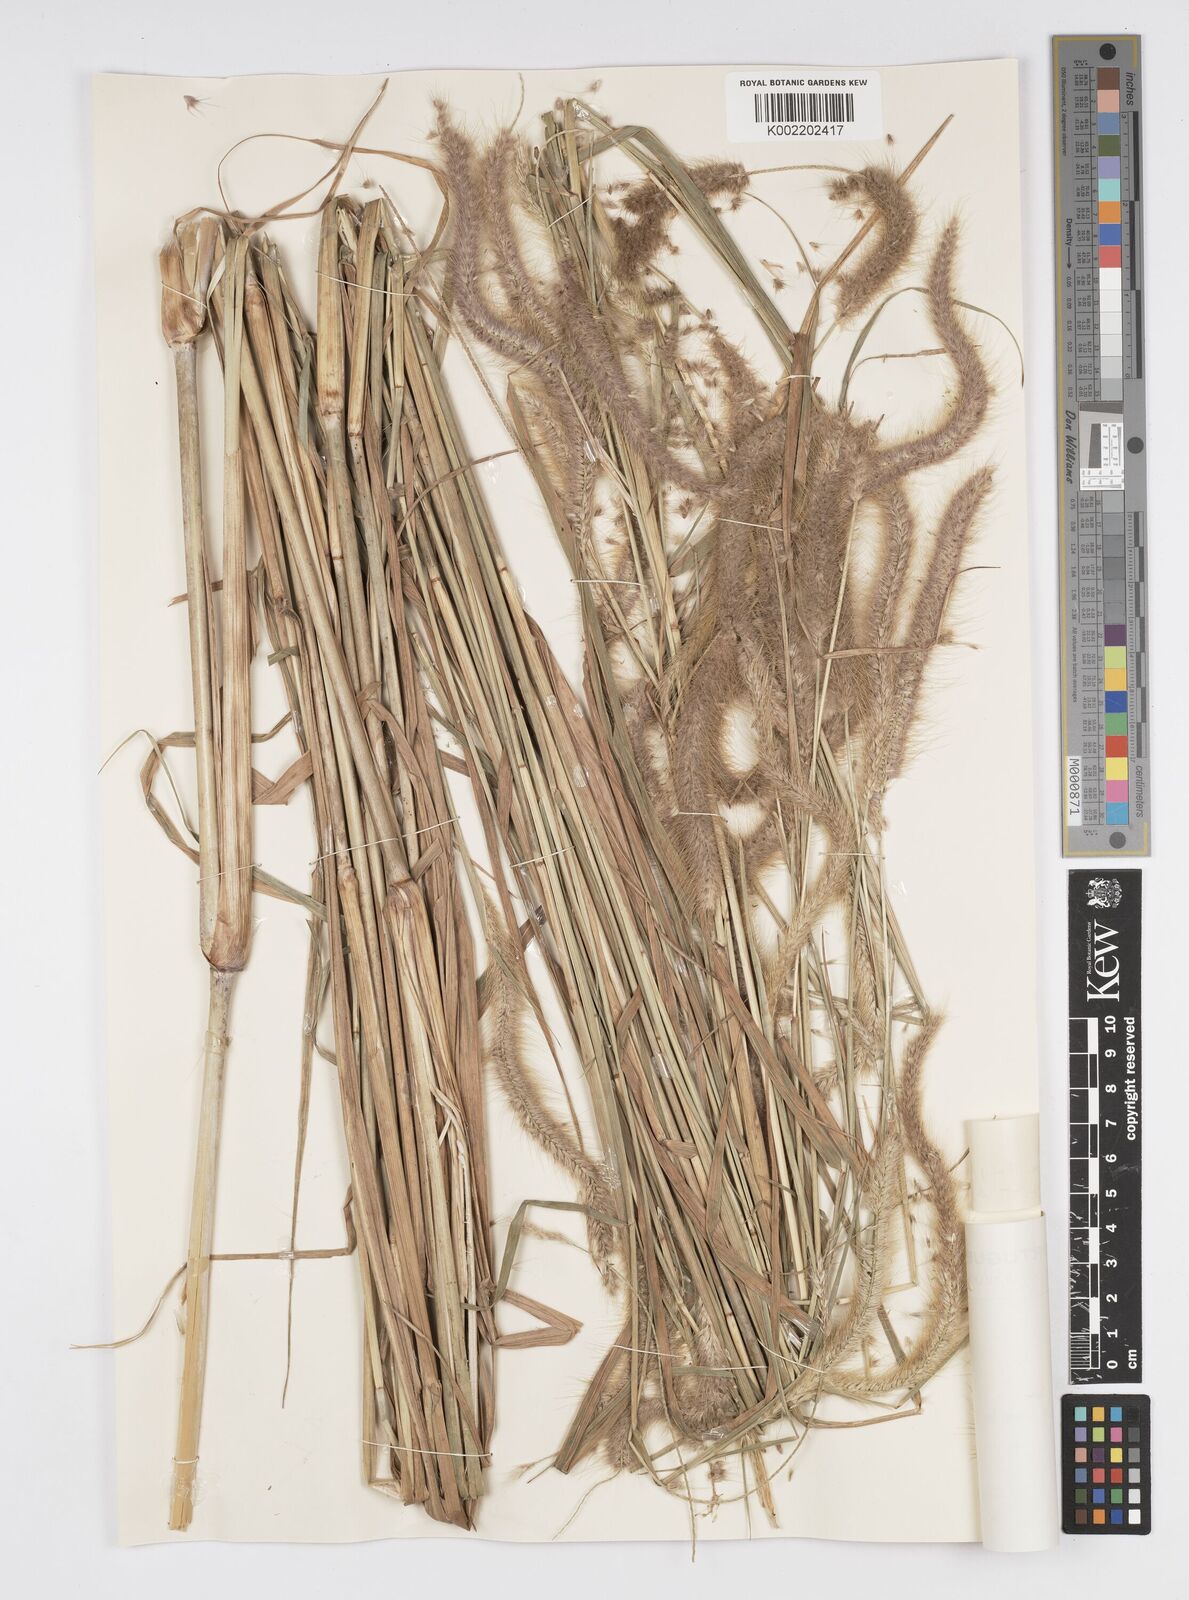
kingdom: Plantae
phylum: Tracheophyta
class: Liliopsida
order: Poales
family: Poaceae
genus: Setaria
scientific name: Setaria parviflora
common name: Knotroot bristle-grass
